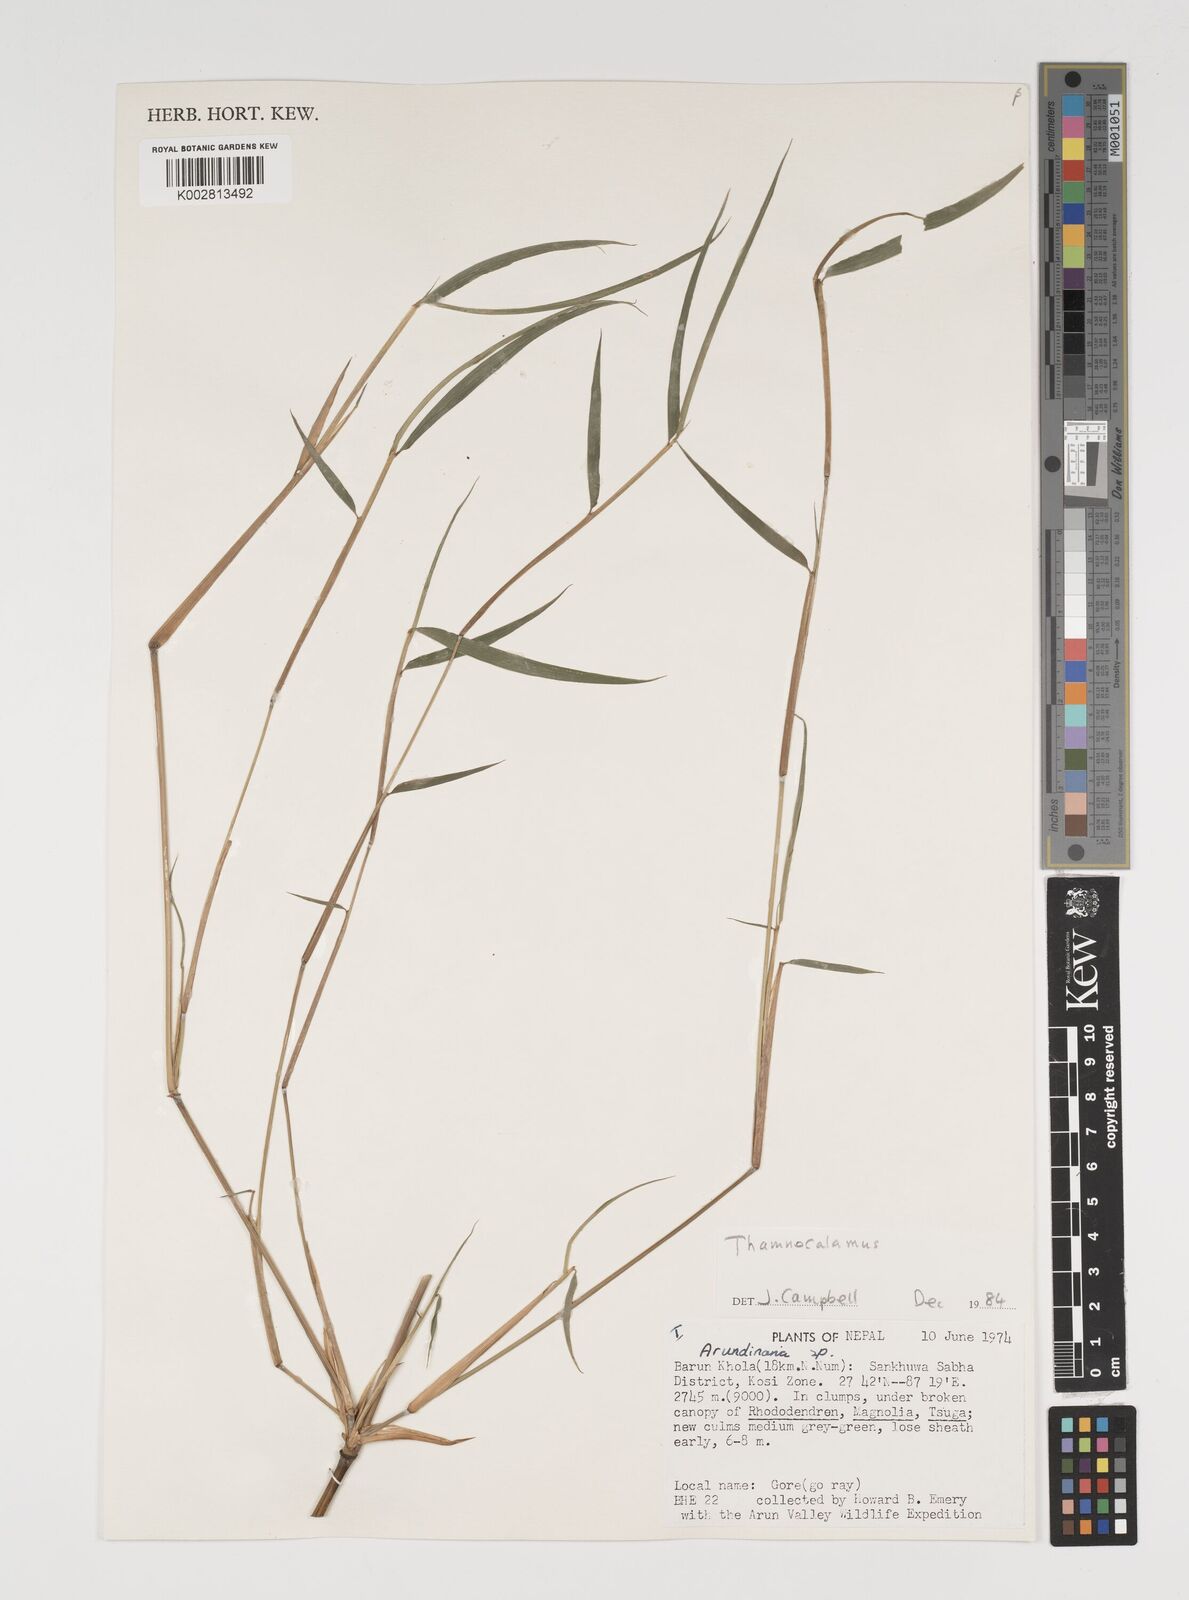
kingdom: Plantae
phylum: Tracheophyta
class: Liliopsida
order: Poales
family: Poaceae
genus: Thamnocalamus
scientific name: Thamnocalamus spathiflorus
